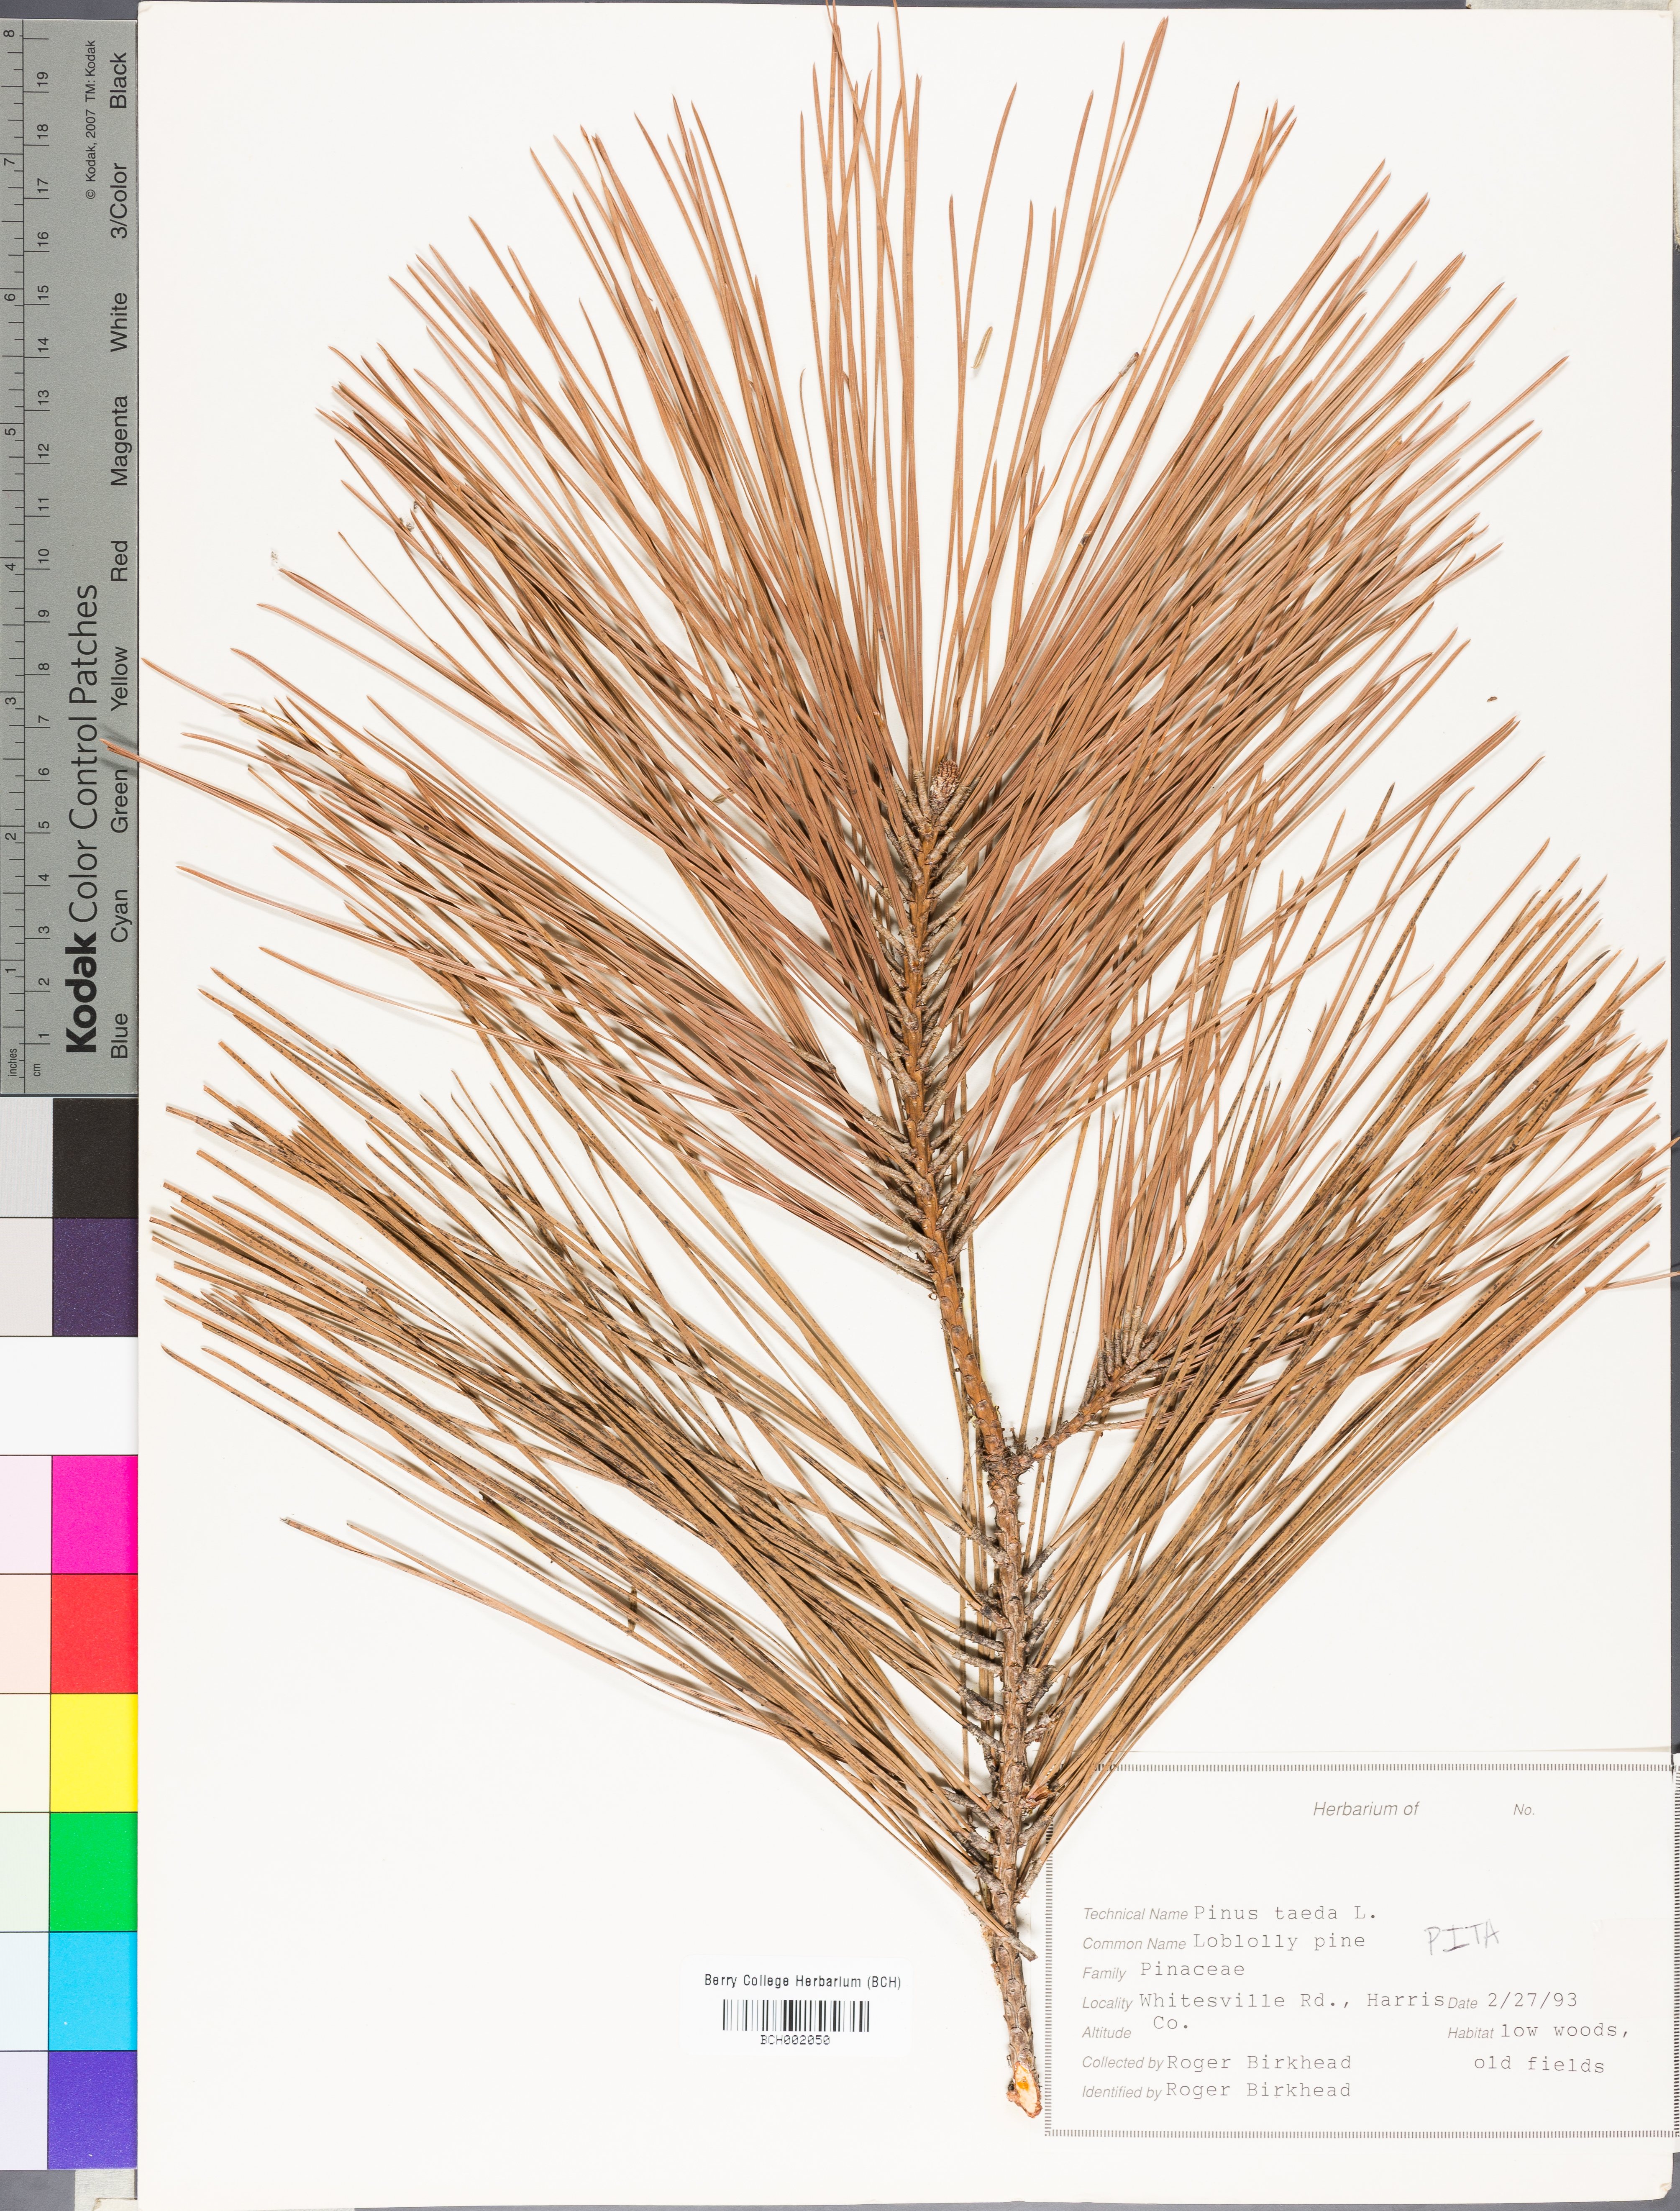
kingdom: Plantae
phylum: Tracheophyta
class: Pinopsida
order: Pinales
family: Pinaceae
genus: Pinus
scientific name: Pinus taeda
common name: Loblolly pine
